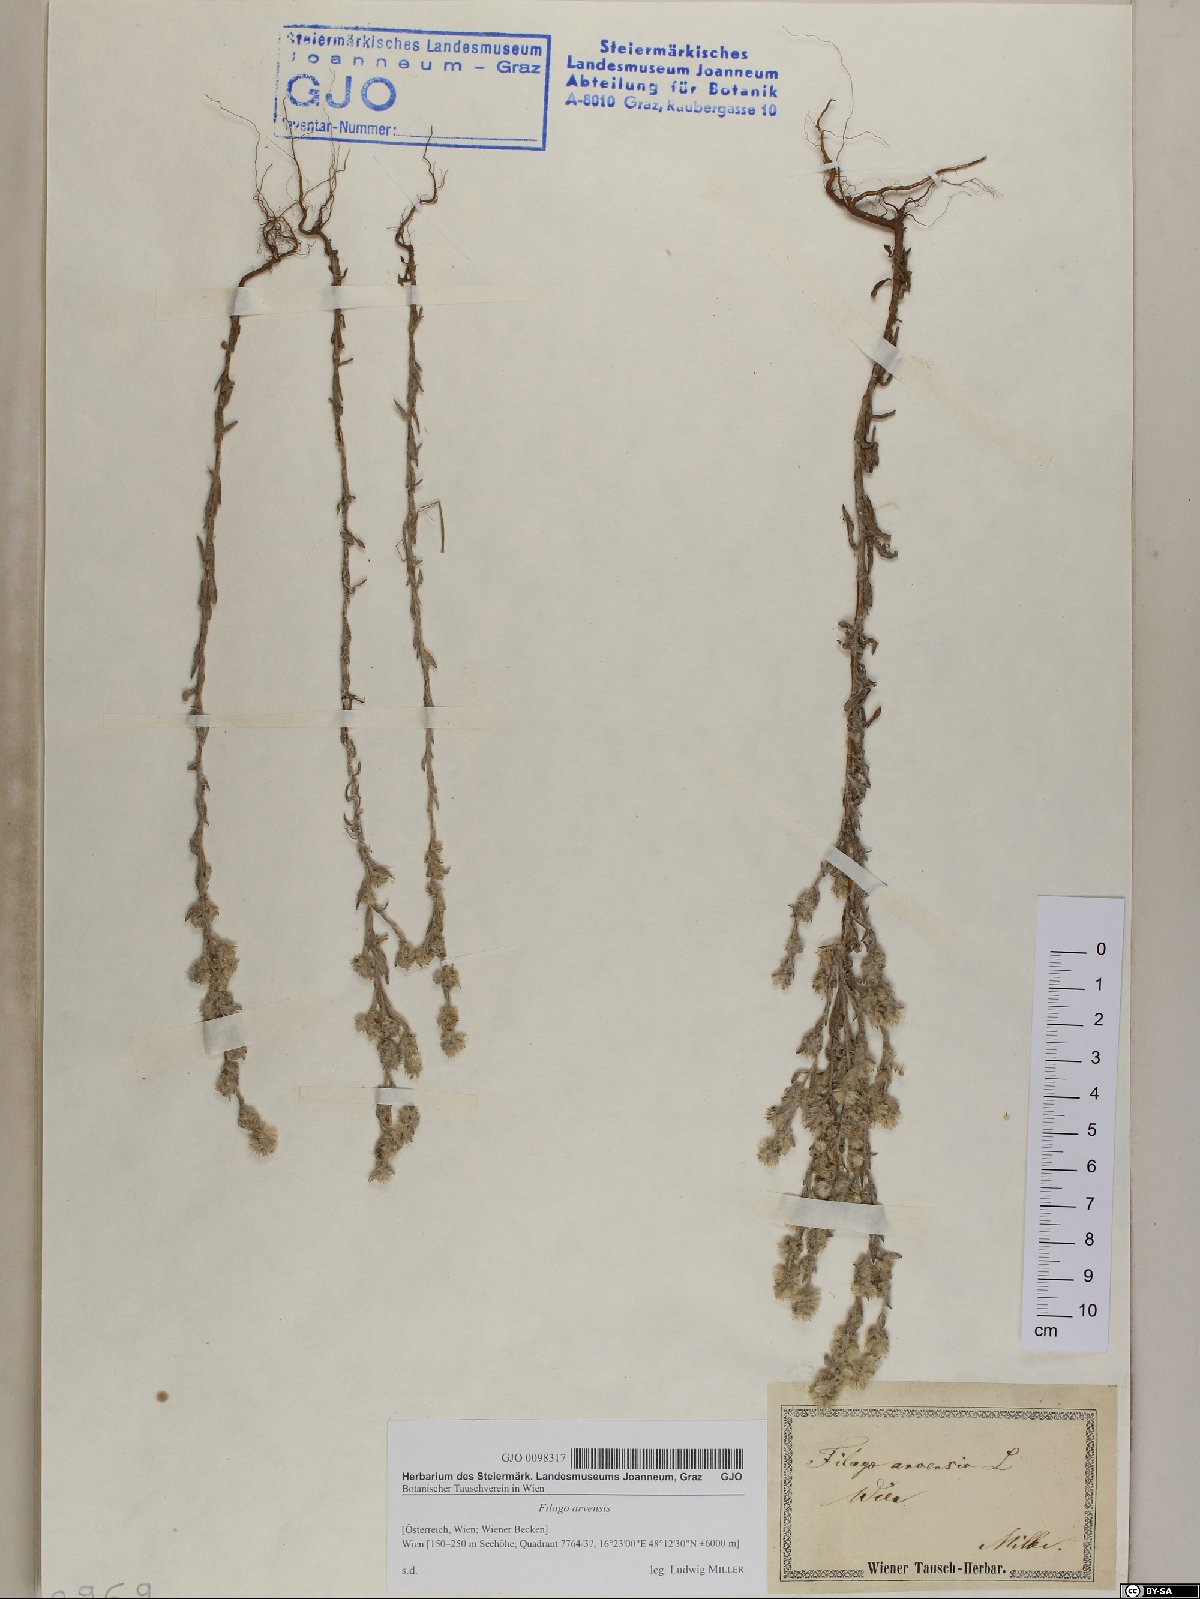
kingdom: Plantae
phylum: Tracheophyta
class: Magnoliopsida
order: Asterales
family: Asteraceae
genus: Filago
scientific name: Filago arvensis
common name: Field cudweed
